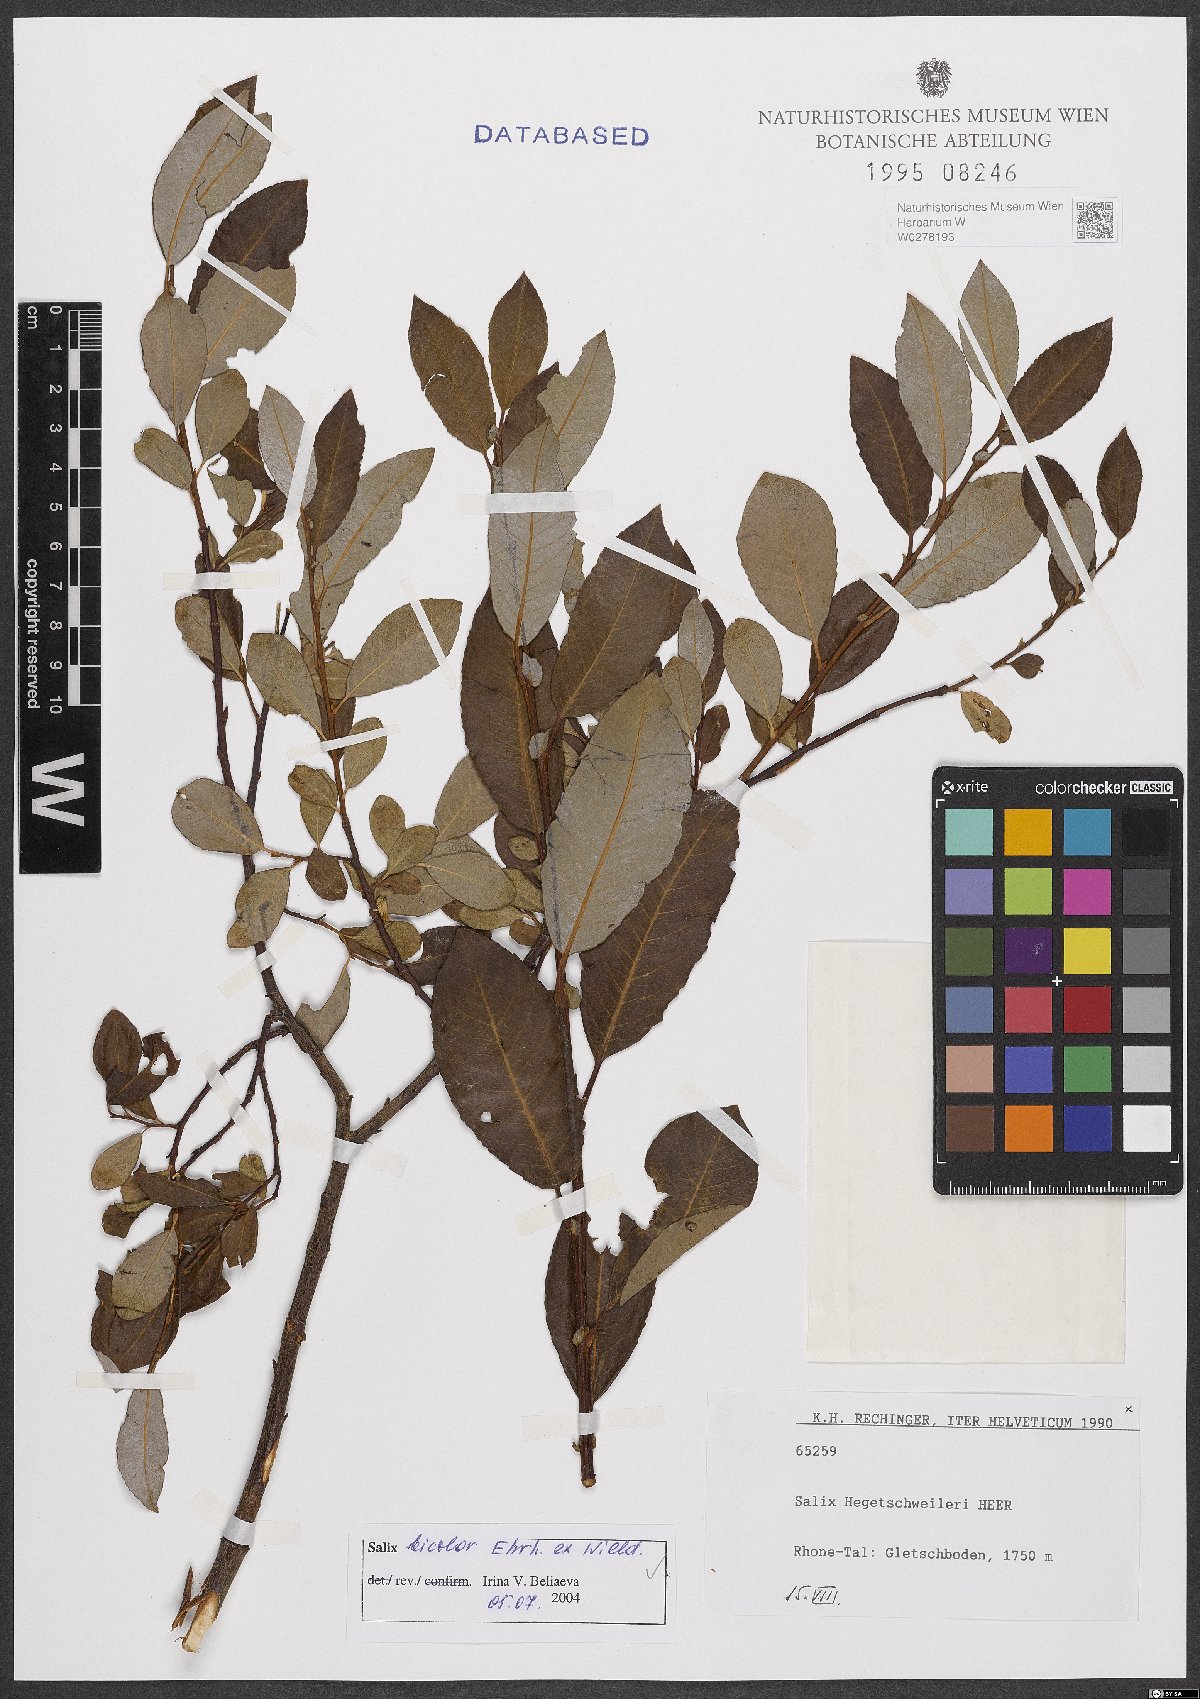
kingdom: Plantae
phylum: Tracheophyta
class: Magnoliopsida
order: Malpighiales
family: Salicaceae
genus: Salix
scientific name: Salix bicolor
